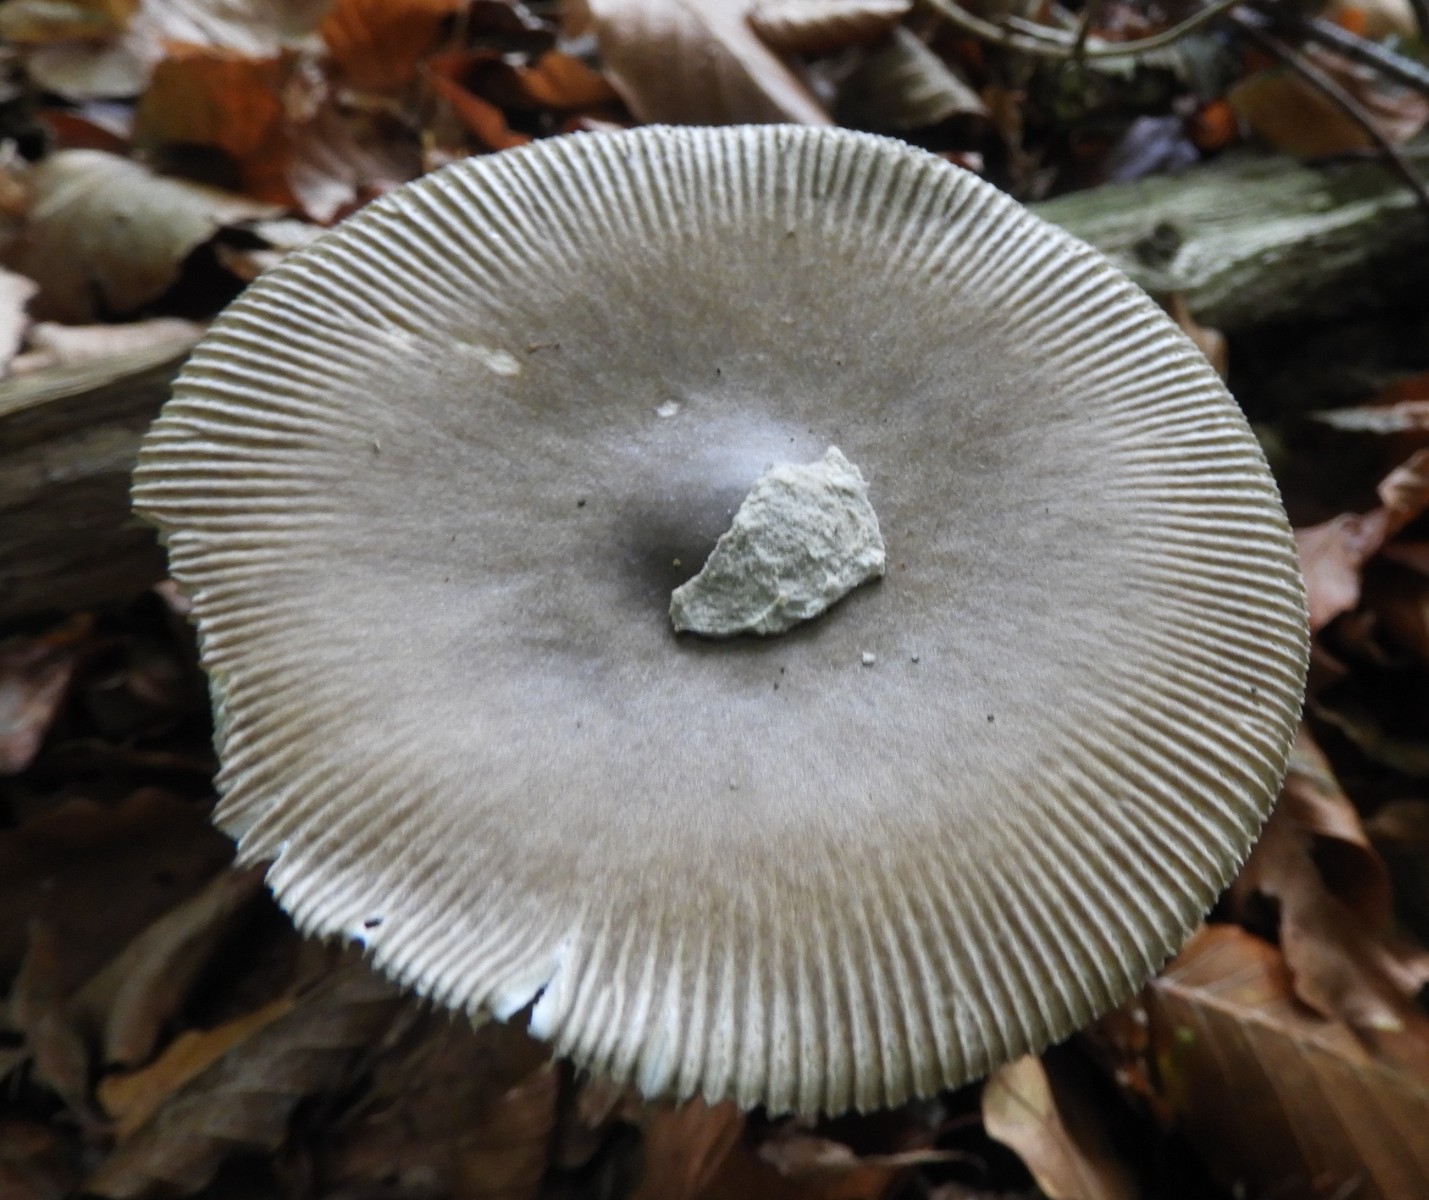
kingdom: Fungi
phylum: Basidiomycota
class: Agaricomycetes
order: Agaricales
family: Amanitaceae
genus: Amanita
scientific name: Amanita submembranacea
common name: gråspættet kam-fluesvamp
